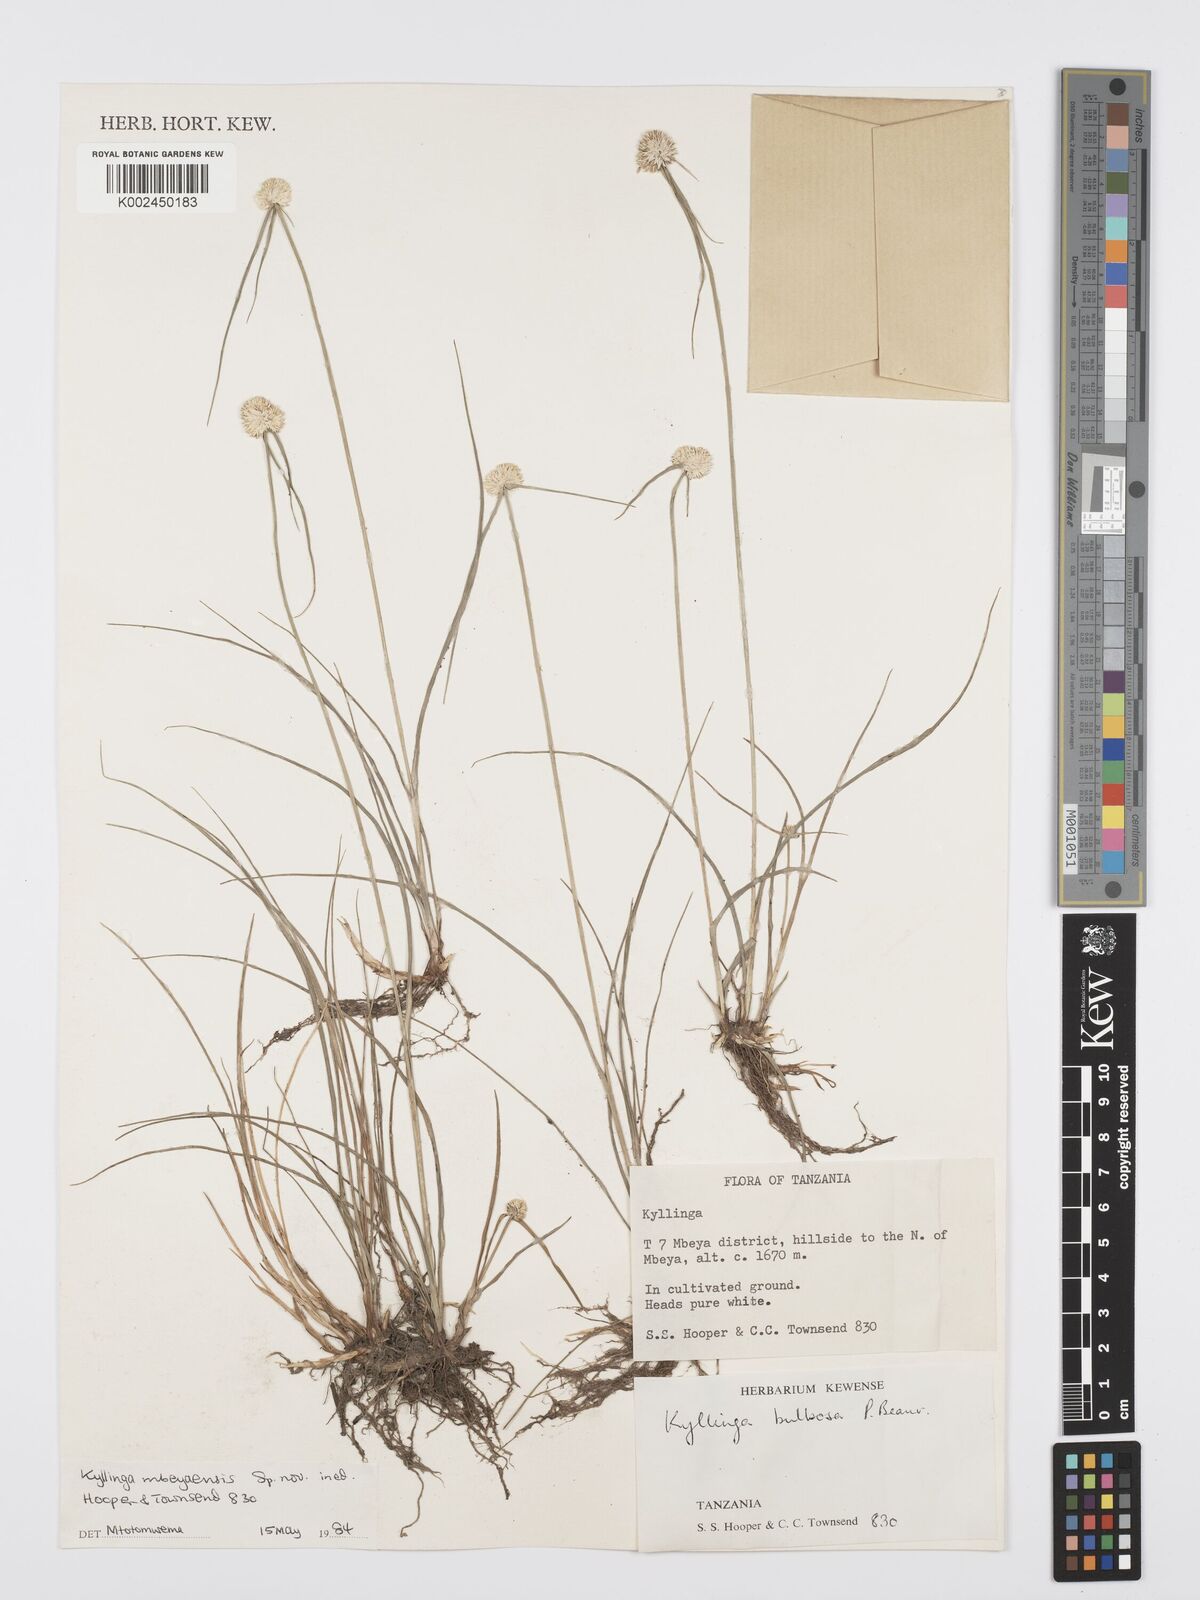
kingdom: Plantae
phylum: Tracheophyta
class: Liliopsida
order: Poales
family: Cyperaceae
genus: Cyperus
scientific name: Cyperus
